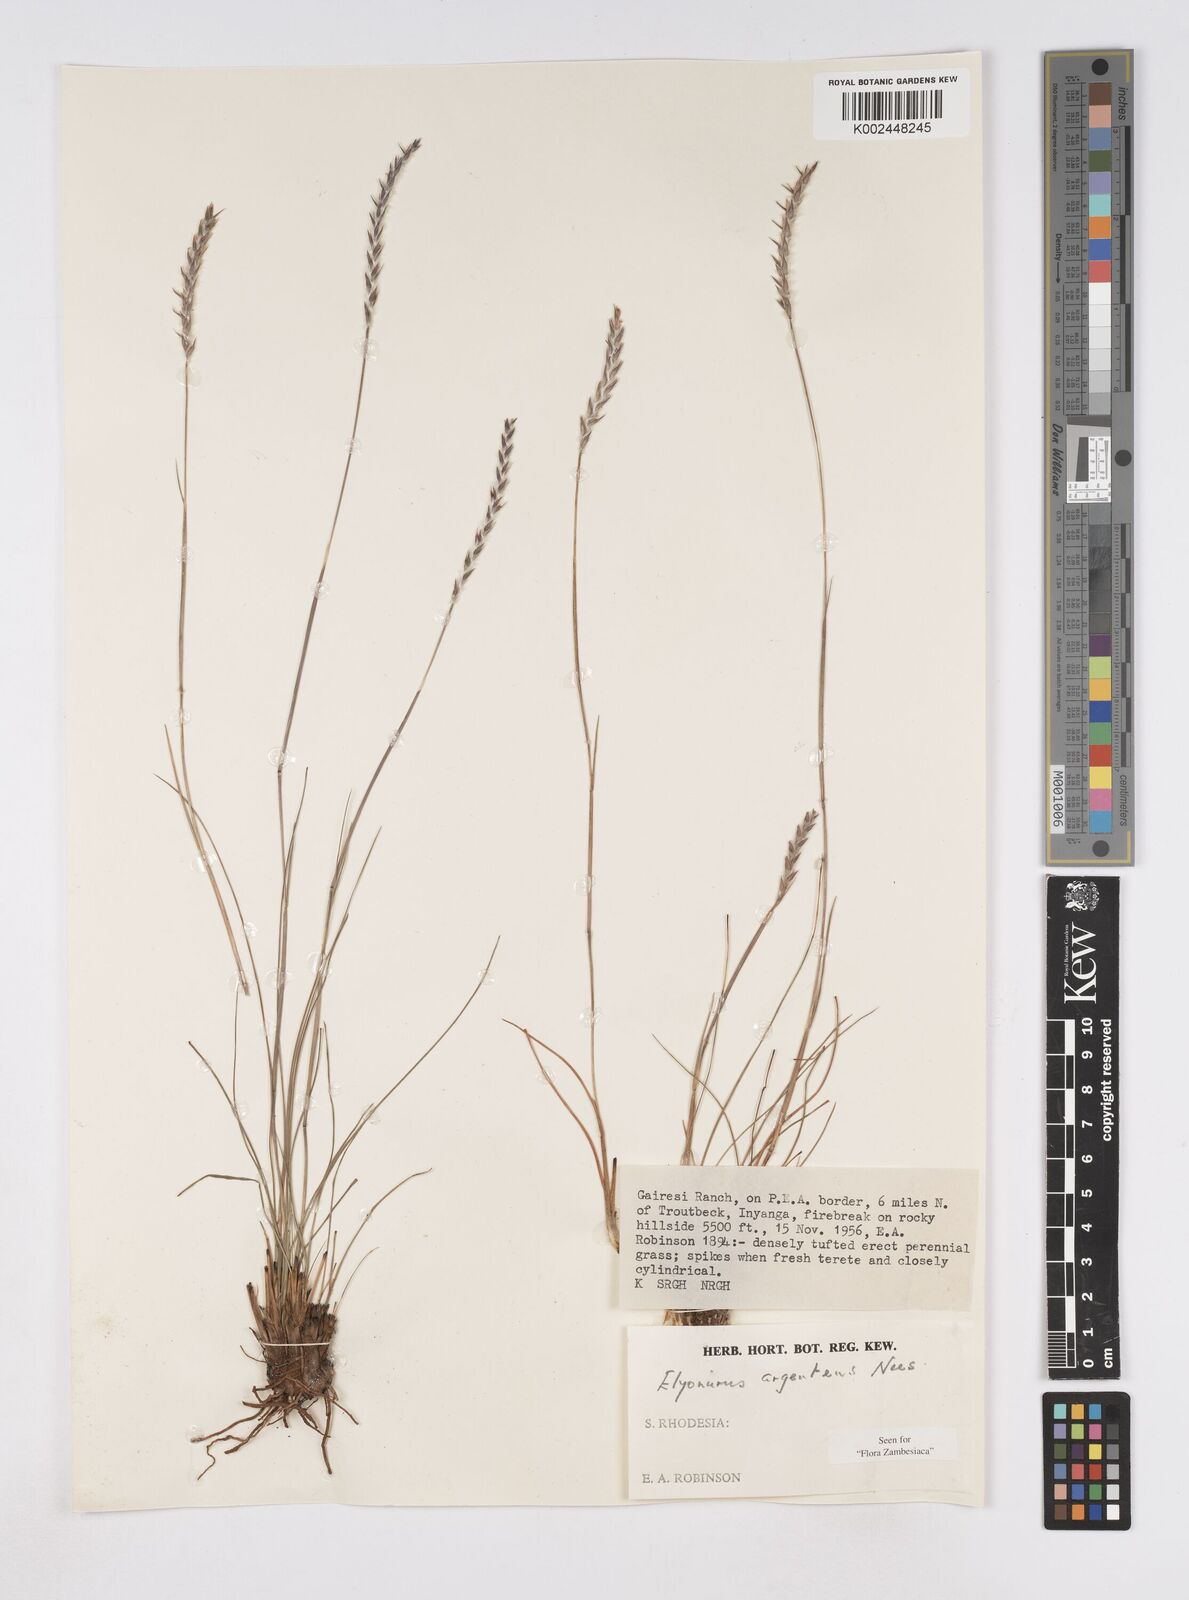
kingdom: Plantae
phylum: Tracheophyta
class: Liliopsida
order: Poales
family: Poaceae
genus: Elionurus
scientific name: Elionurus muticus
